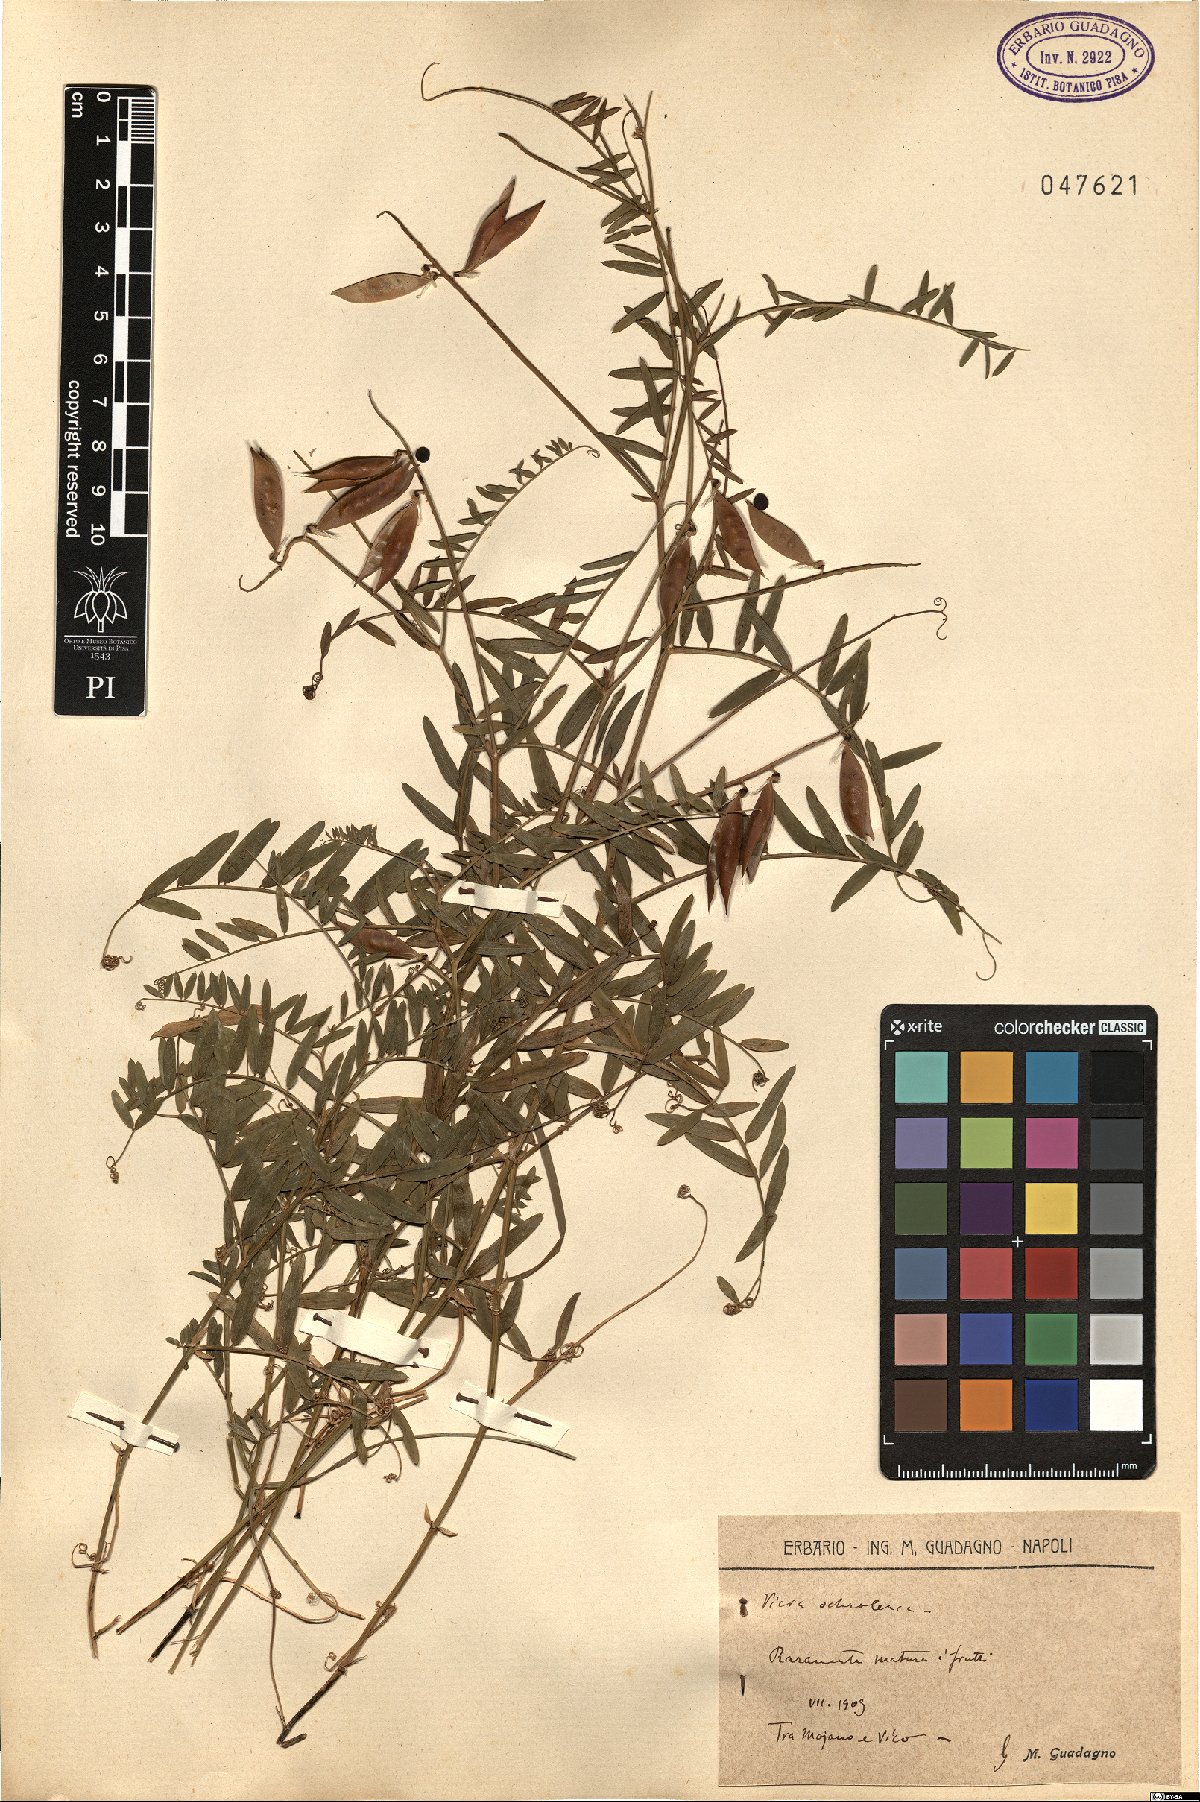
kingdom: Plantae
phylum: Tracheophyta
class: Magnoliopsida
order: Fabales
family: Fabaceae
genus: Vicia
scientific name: Vicia ochroleuca
